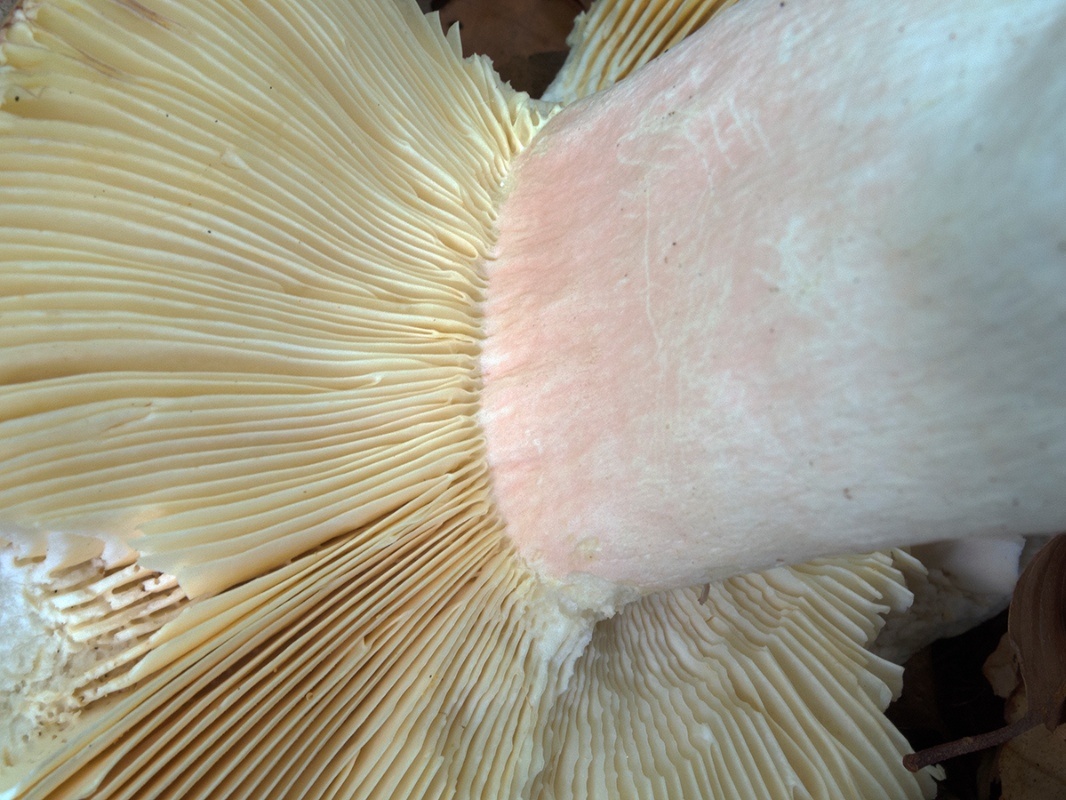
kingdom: Fungi
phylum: Basidiomycota
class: Agaricomycetes
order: Russulales
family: Russulaceae
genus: Russula
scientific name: Russula olivacea
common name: stor skørhat
